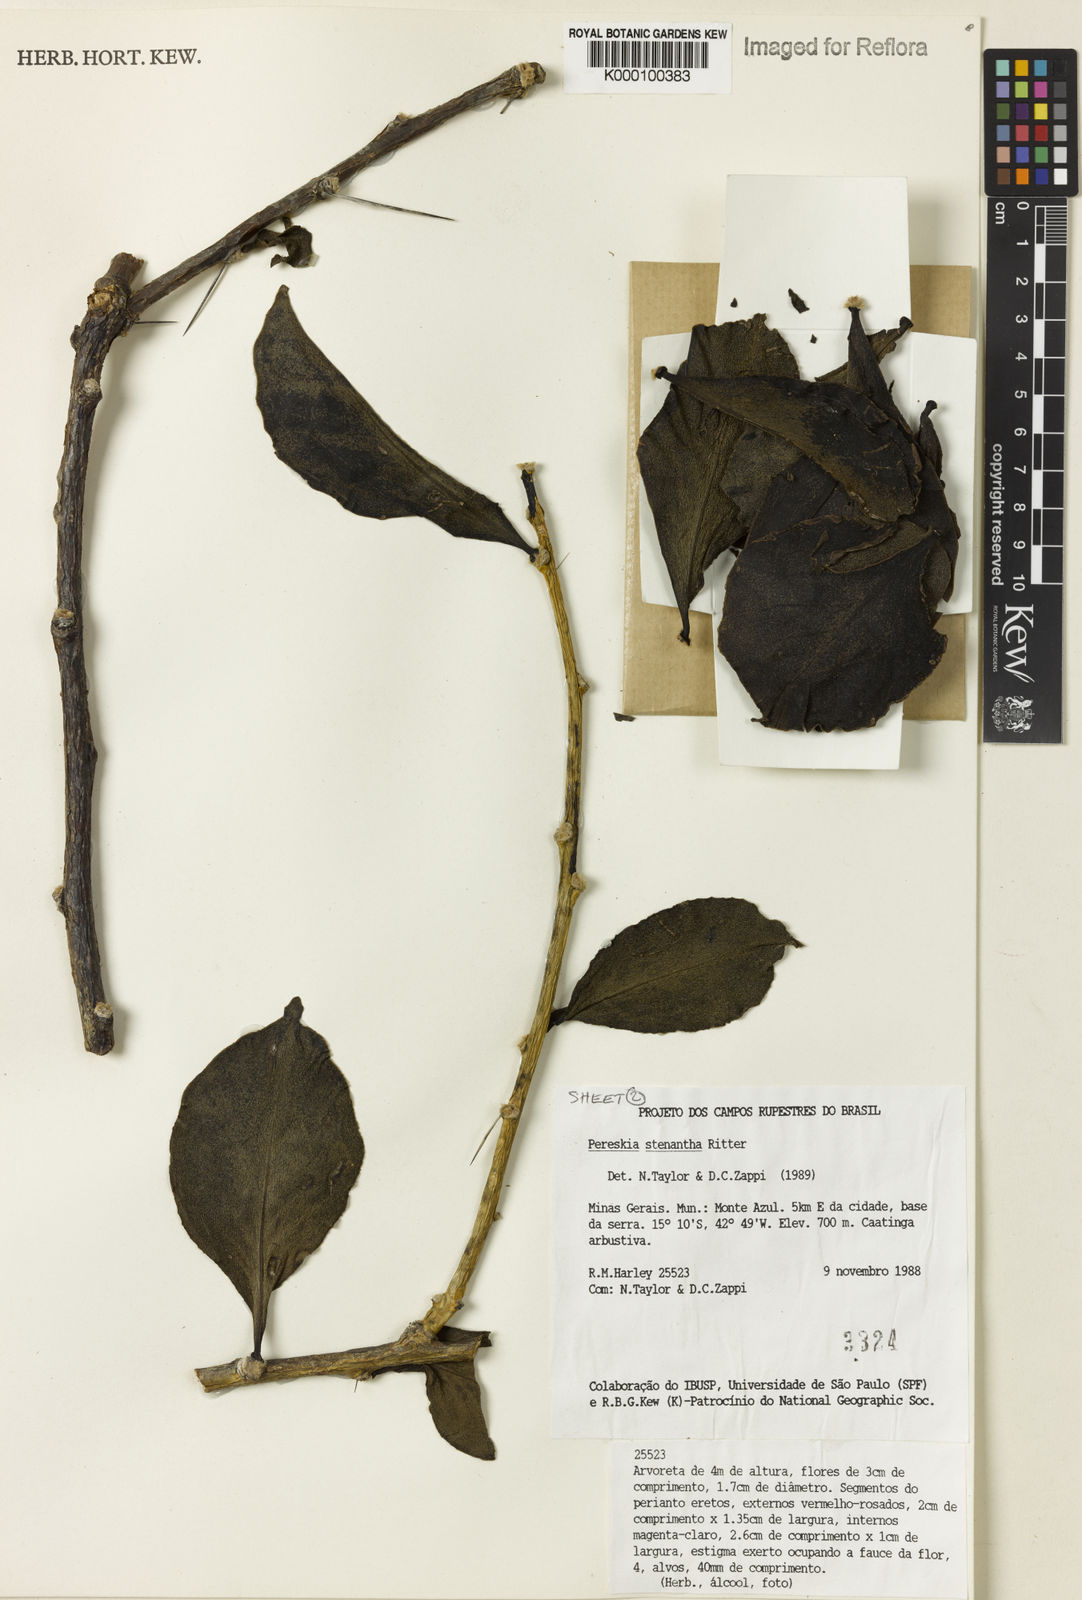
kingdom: Plantae
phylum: Tracheophyta
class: Magnoliopsida
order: Caryophyllales
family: Cactaceae
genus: Pereskia
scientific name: Pereskia stenantha
